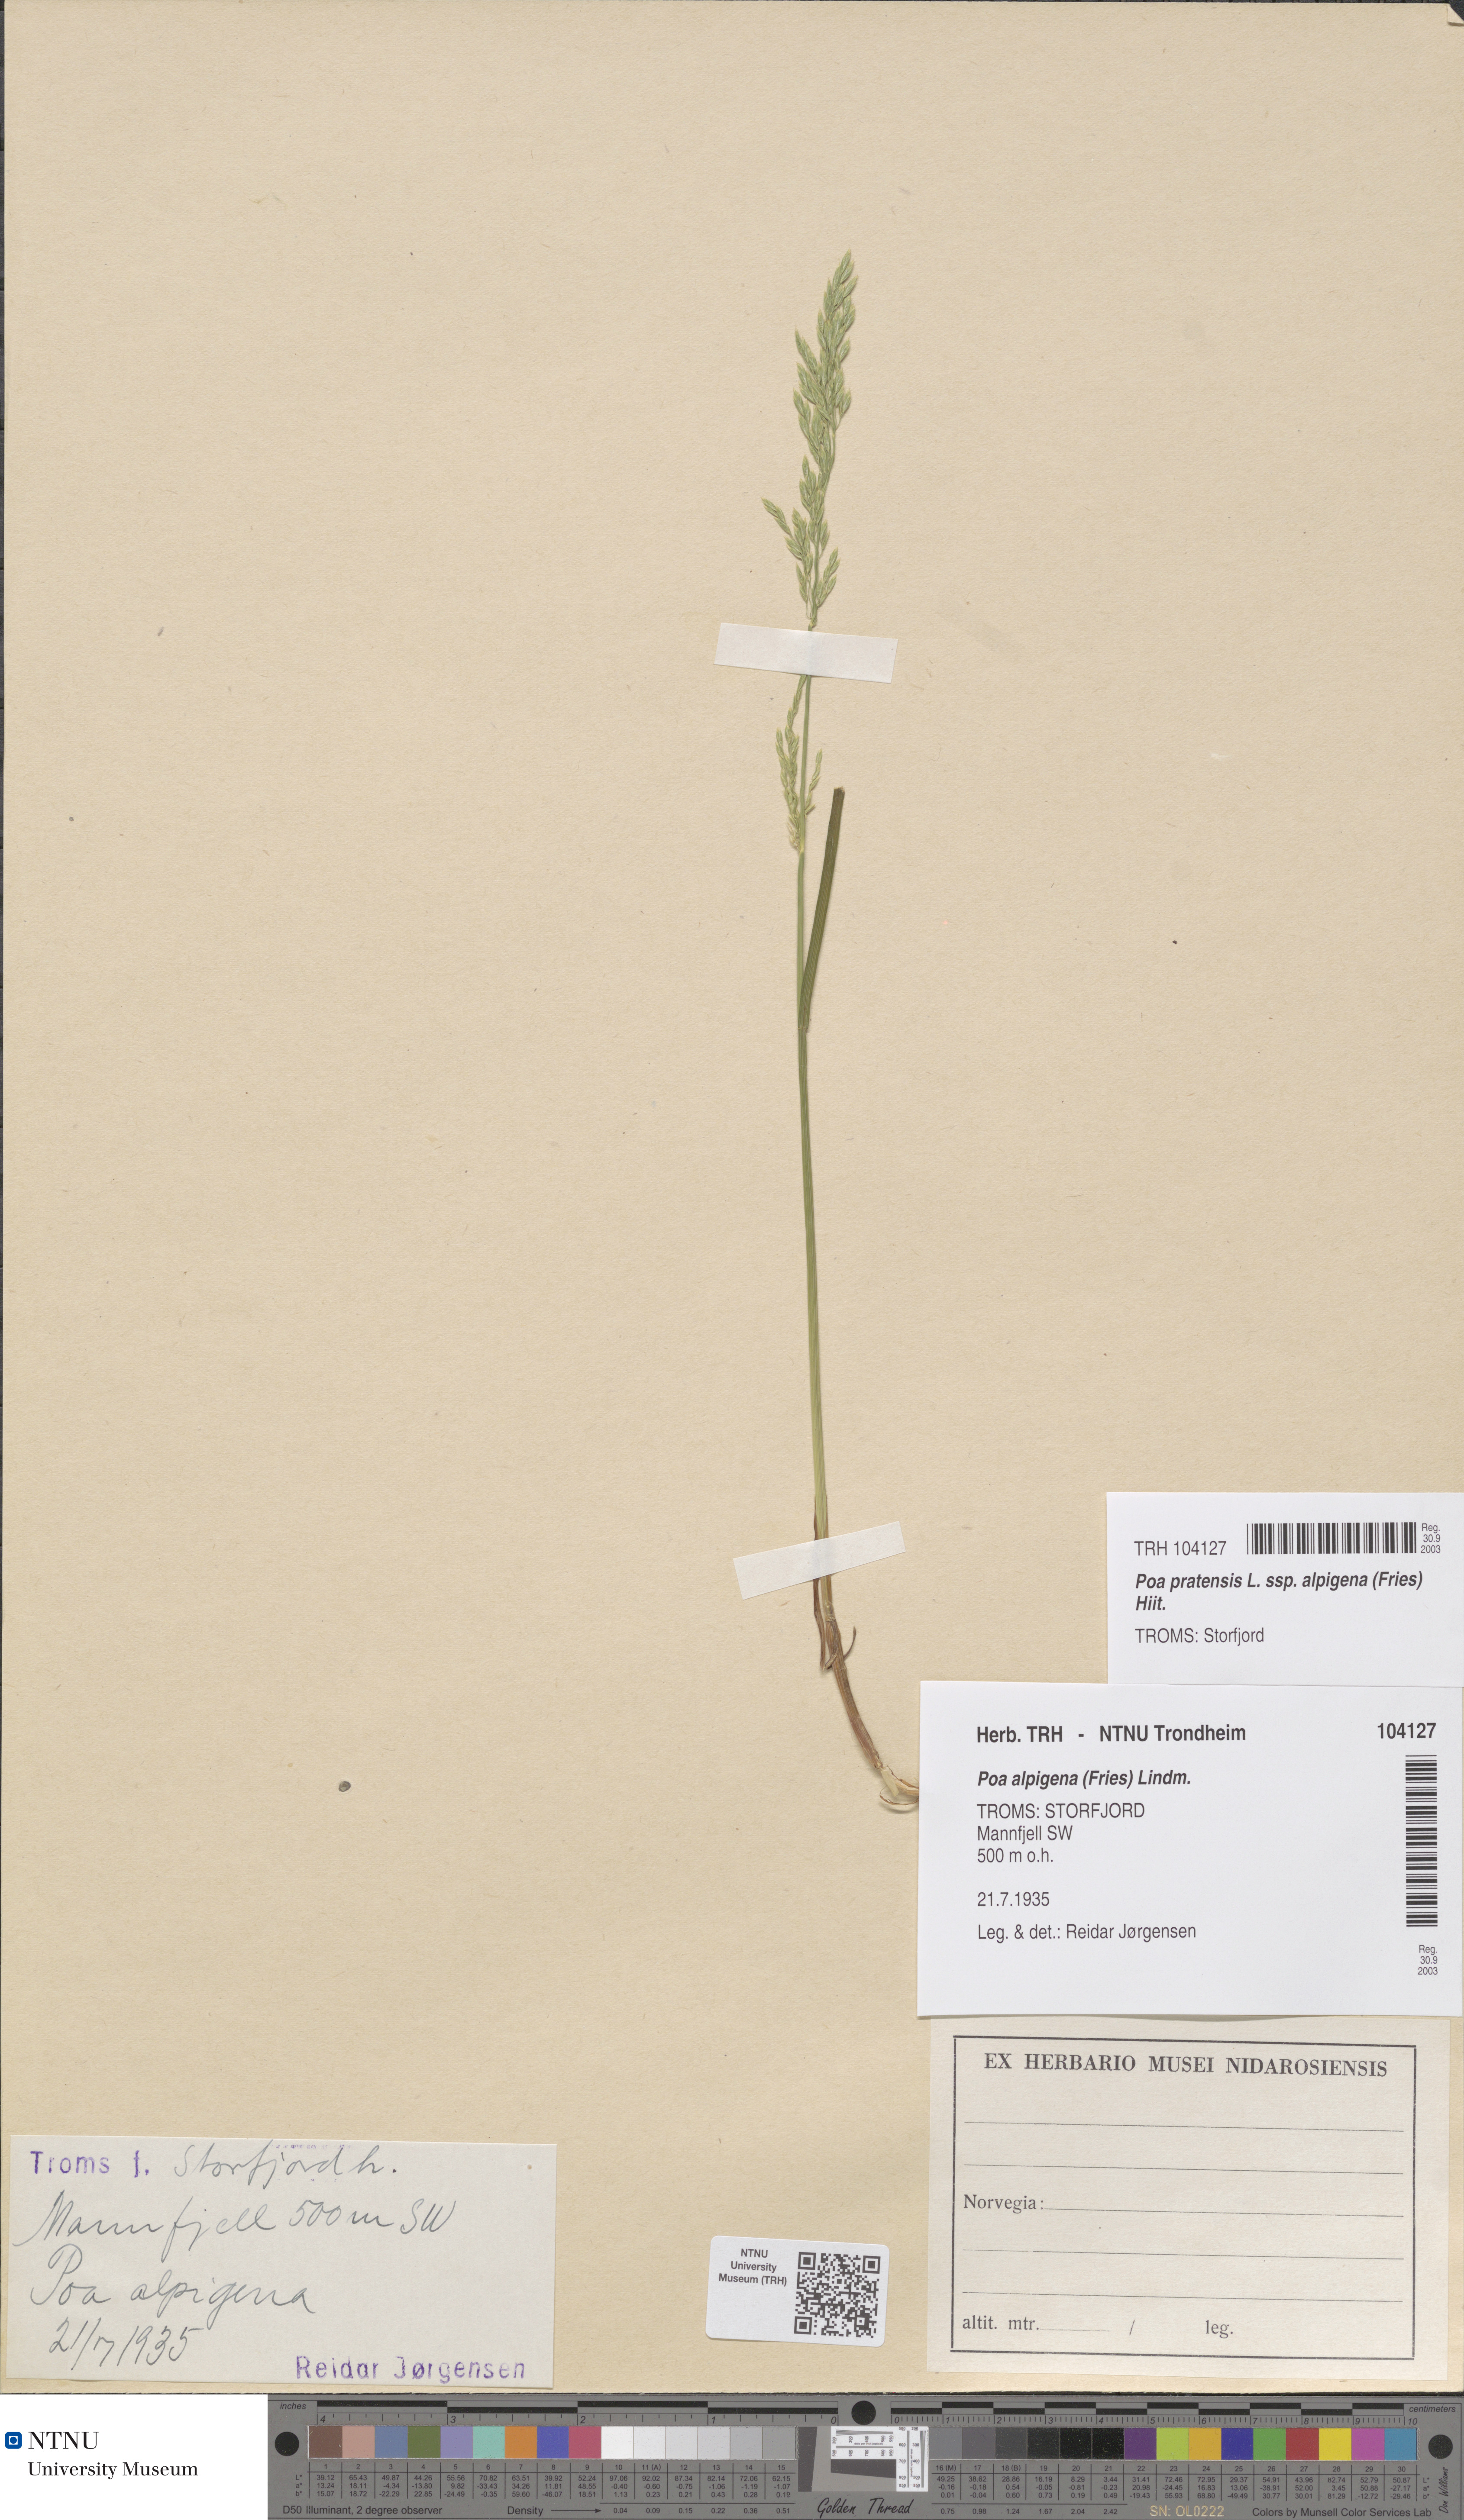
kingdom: Plantae
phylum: Tracheophyta
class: Liliopsida
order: Poales
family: Poaceae
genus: Poa
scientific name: Poa alpigena
